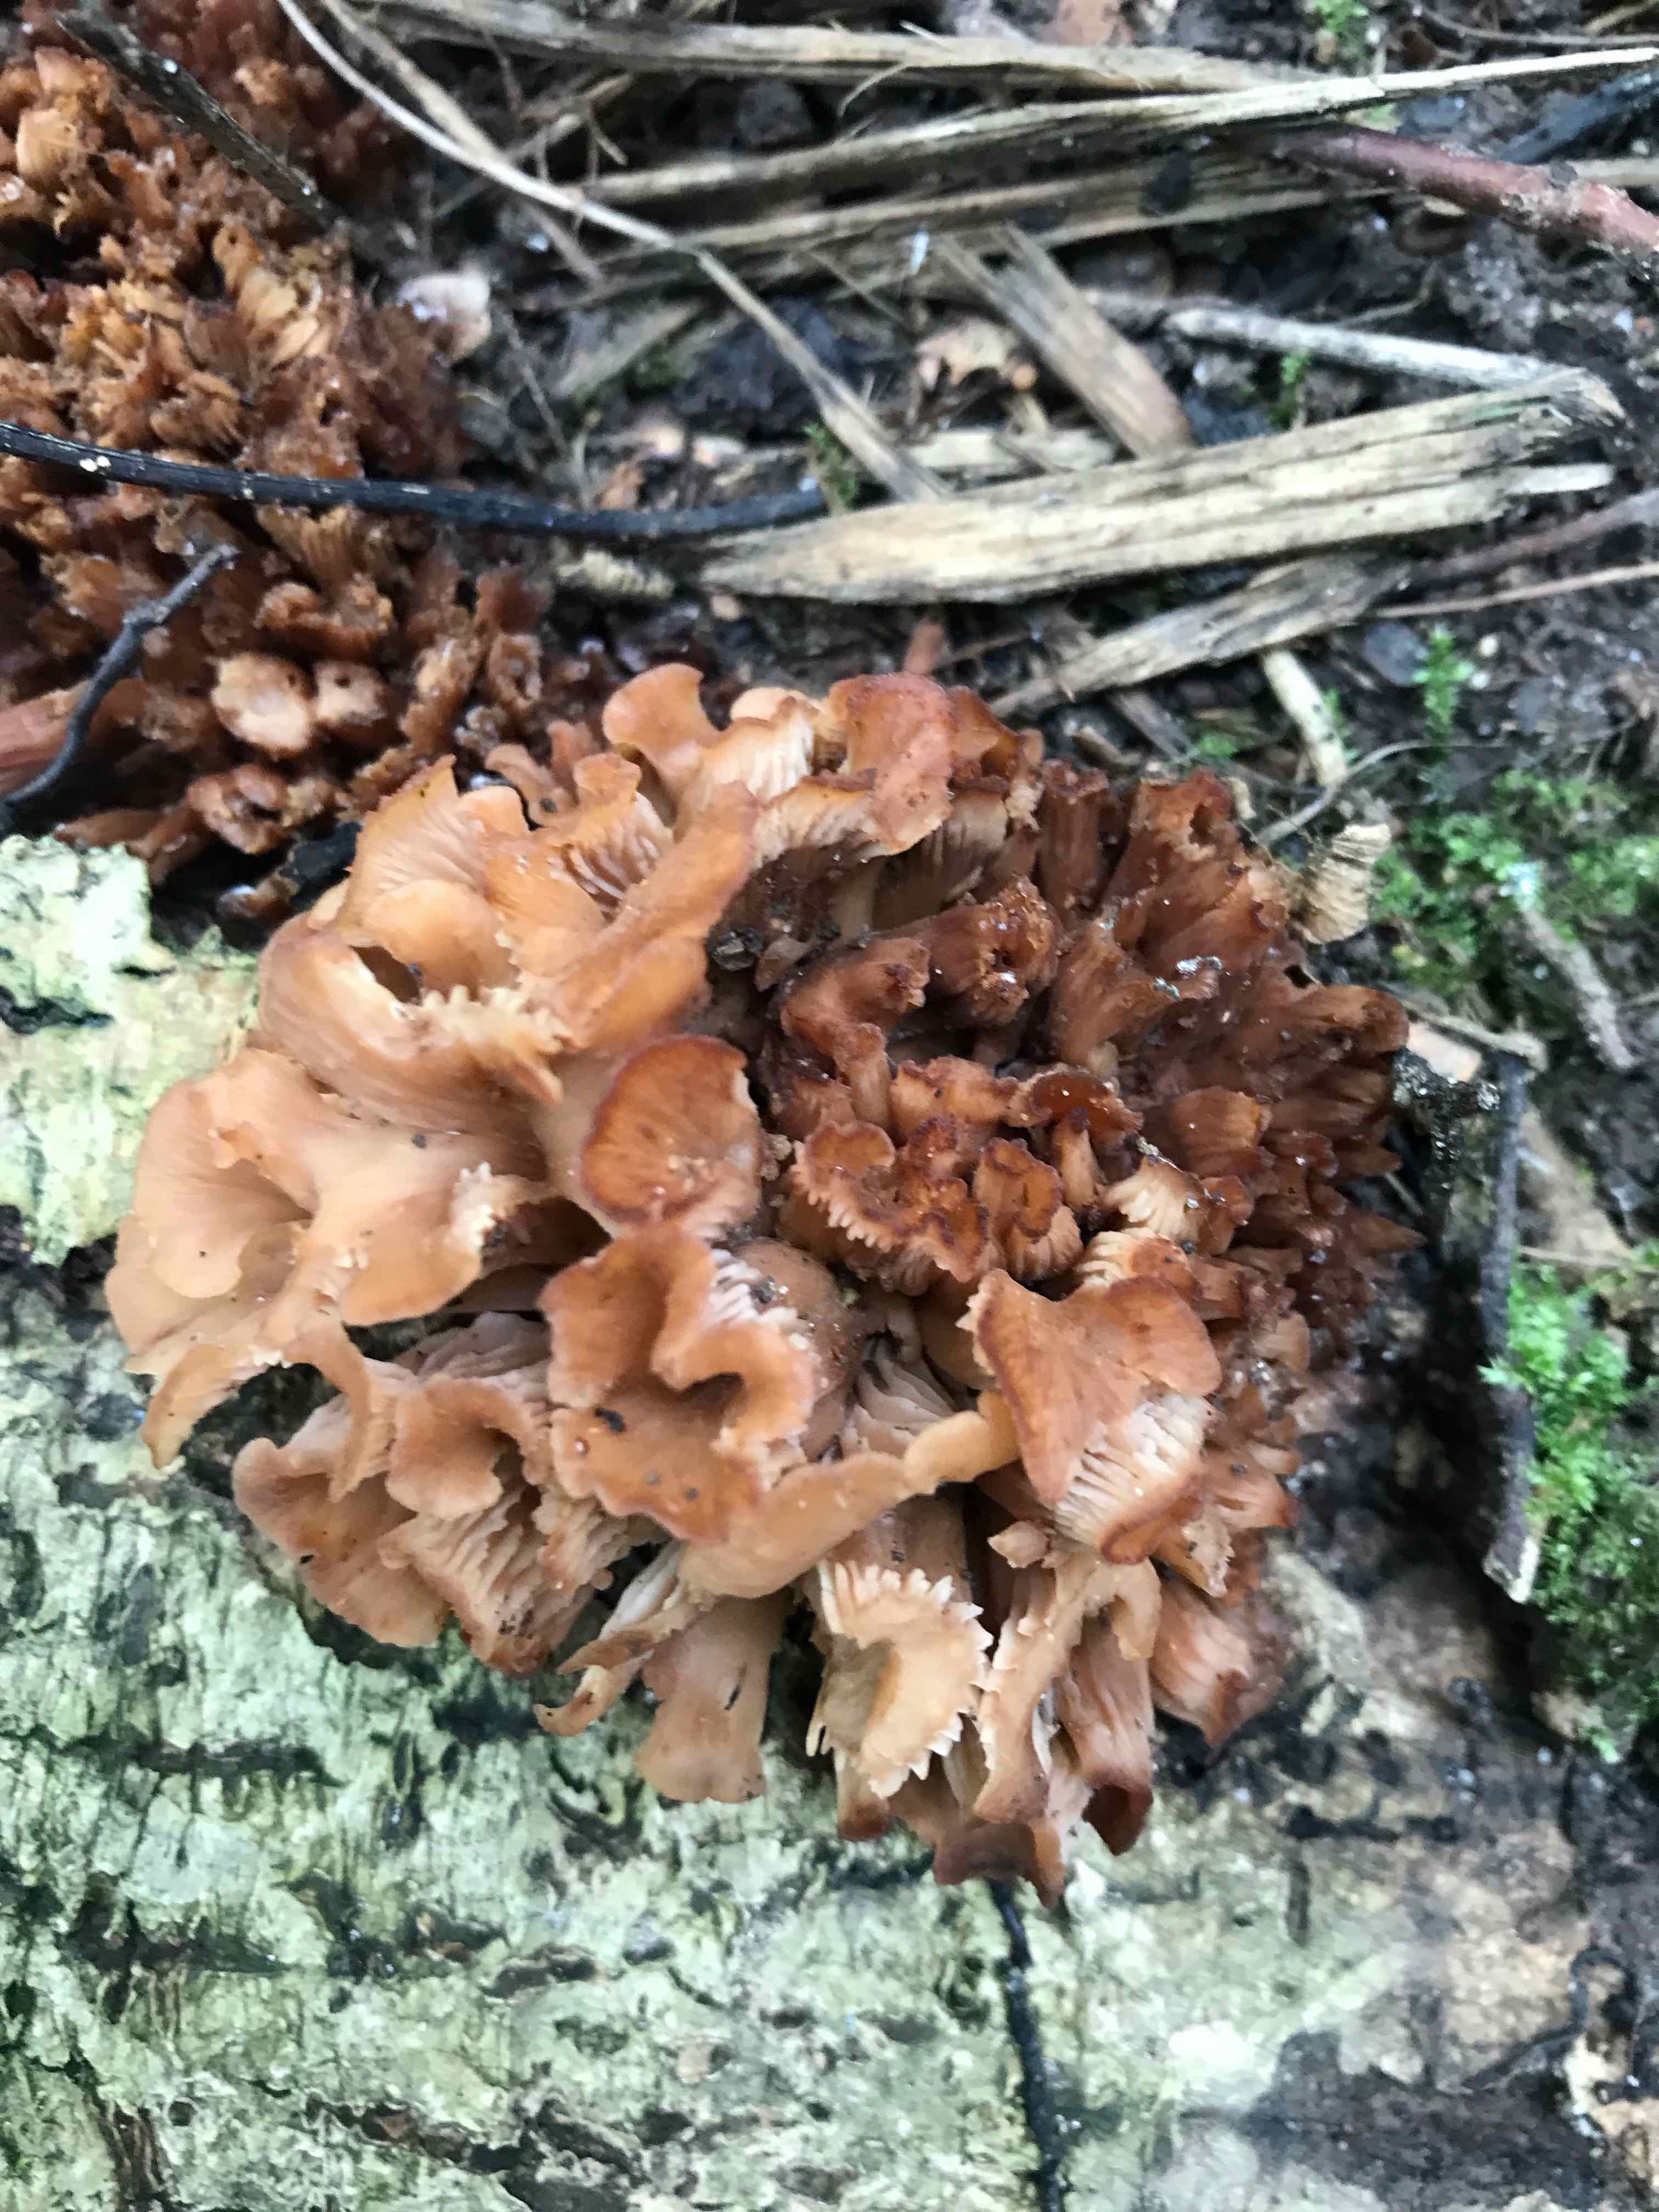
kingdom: Fungi
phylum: Basidiomycota
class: Agaricomycetes
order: Russulales
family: Auriscalpiaceae
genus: Lentinellus
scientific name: Lentinellus cochleatus
